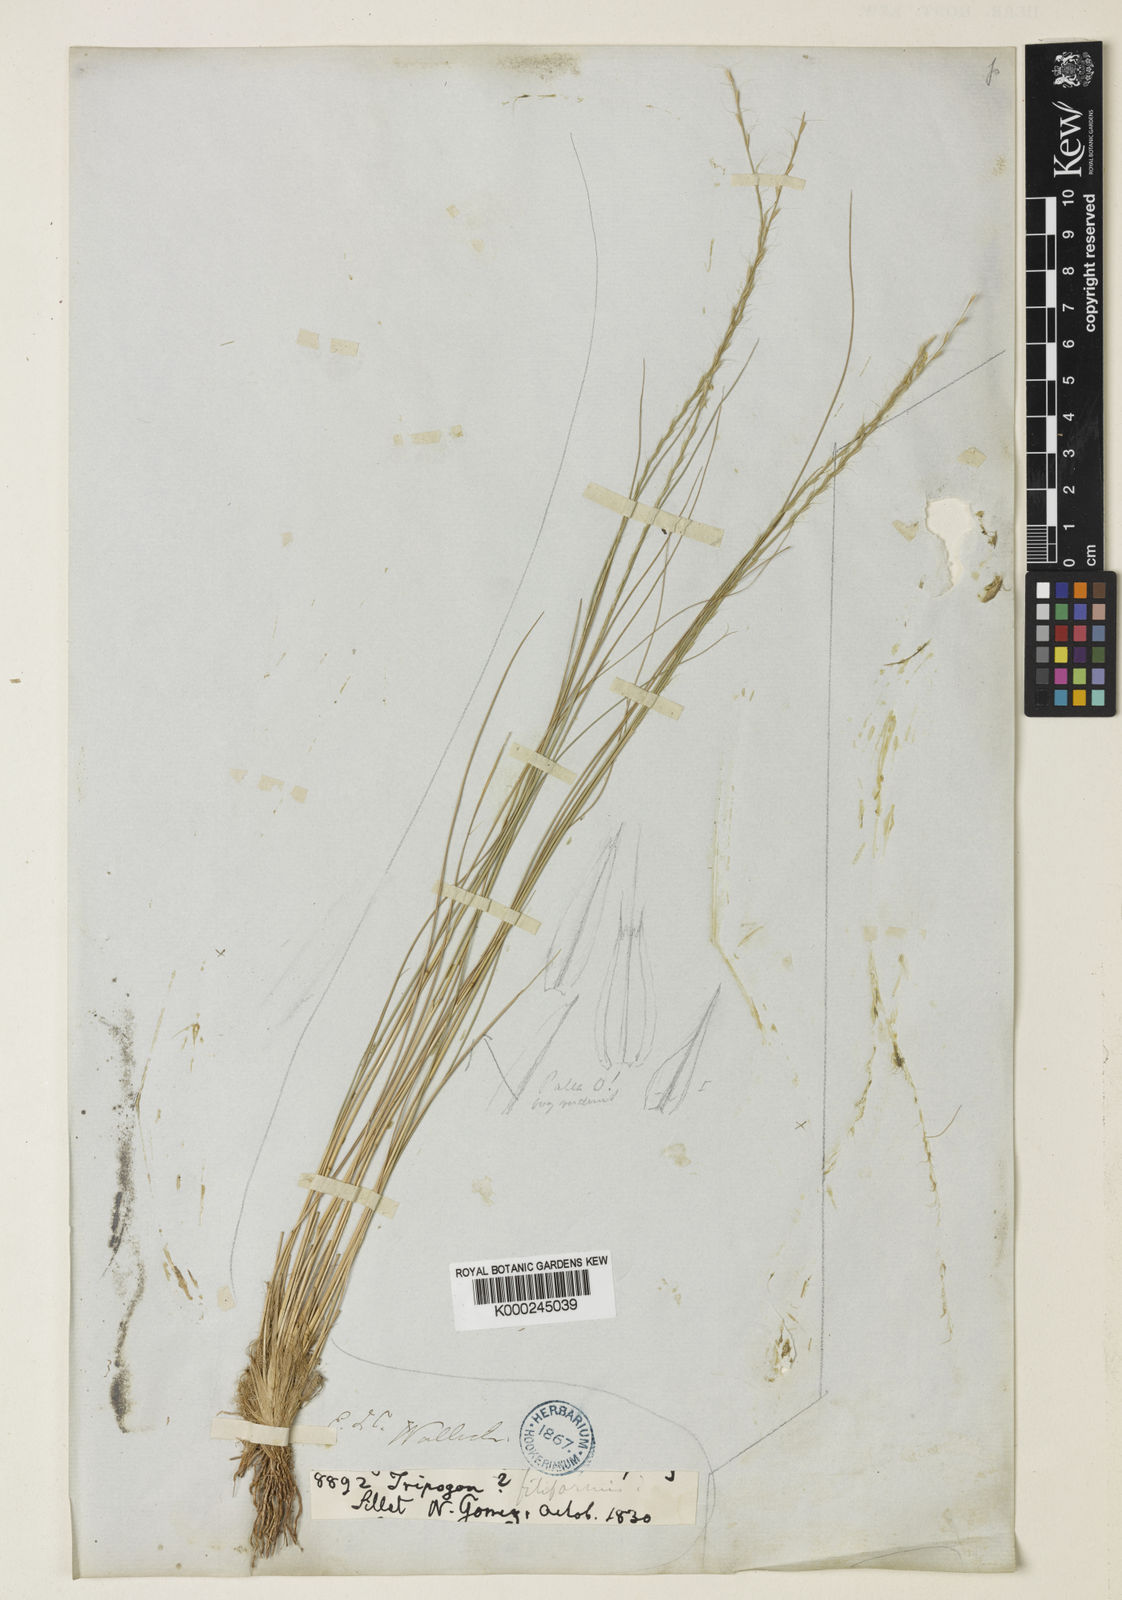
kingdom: Plantae
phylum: Tracheophyta
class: Liliopsida
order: Poales
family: Poaceae
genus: Tripogon
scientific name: Tripogon filiformis
